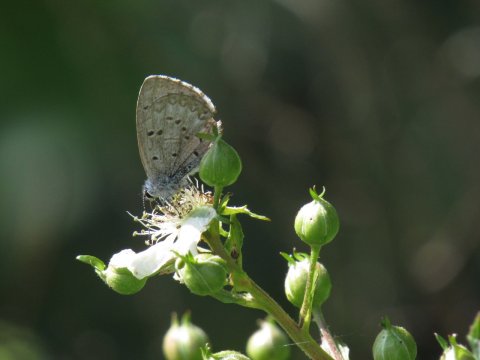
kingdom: Animalia
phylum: Arthropoda
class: Insecta
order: Lepidoptera
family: Lycaenidae
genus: Celastrina
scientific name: Celastrina lucia
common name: Northern Spring Azure
